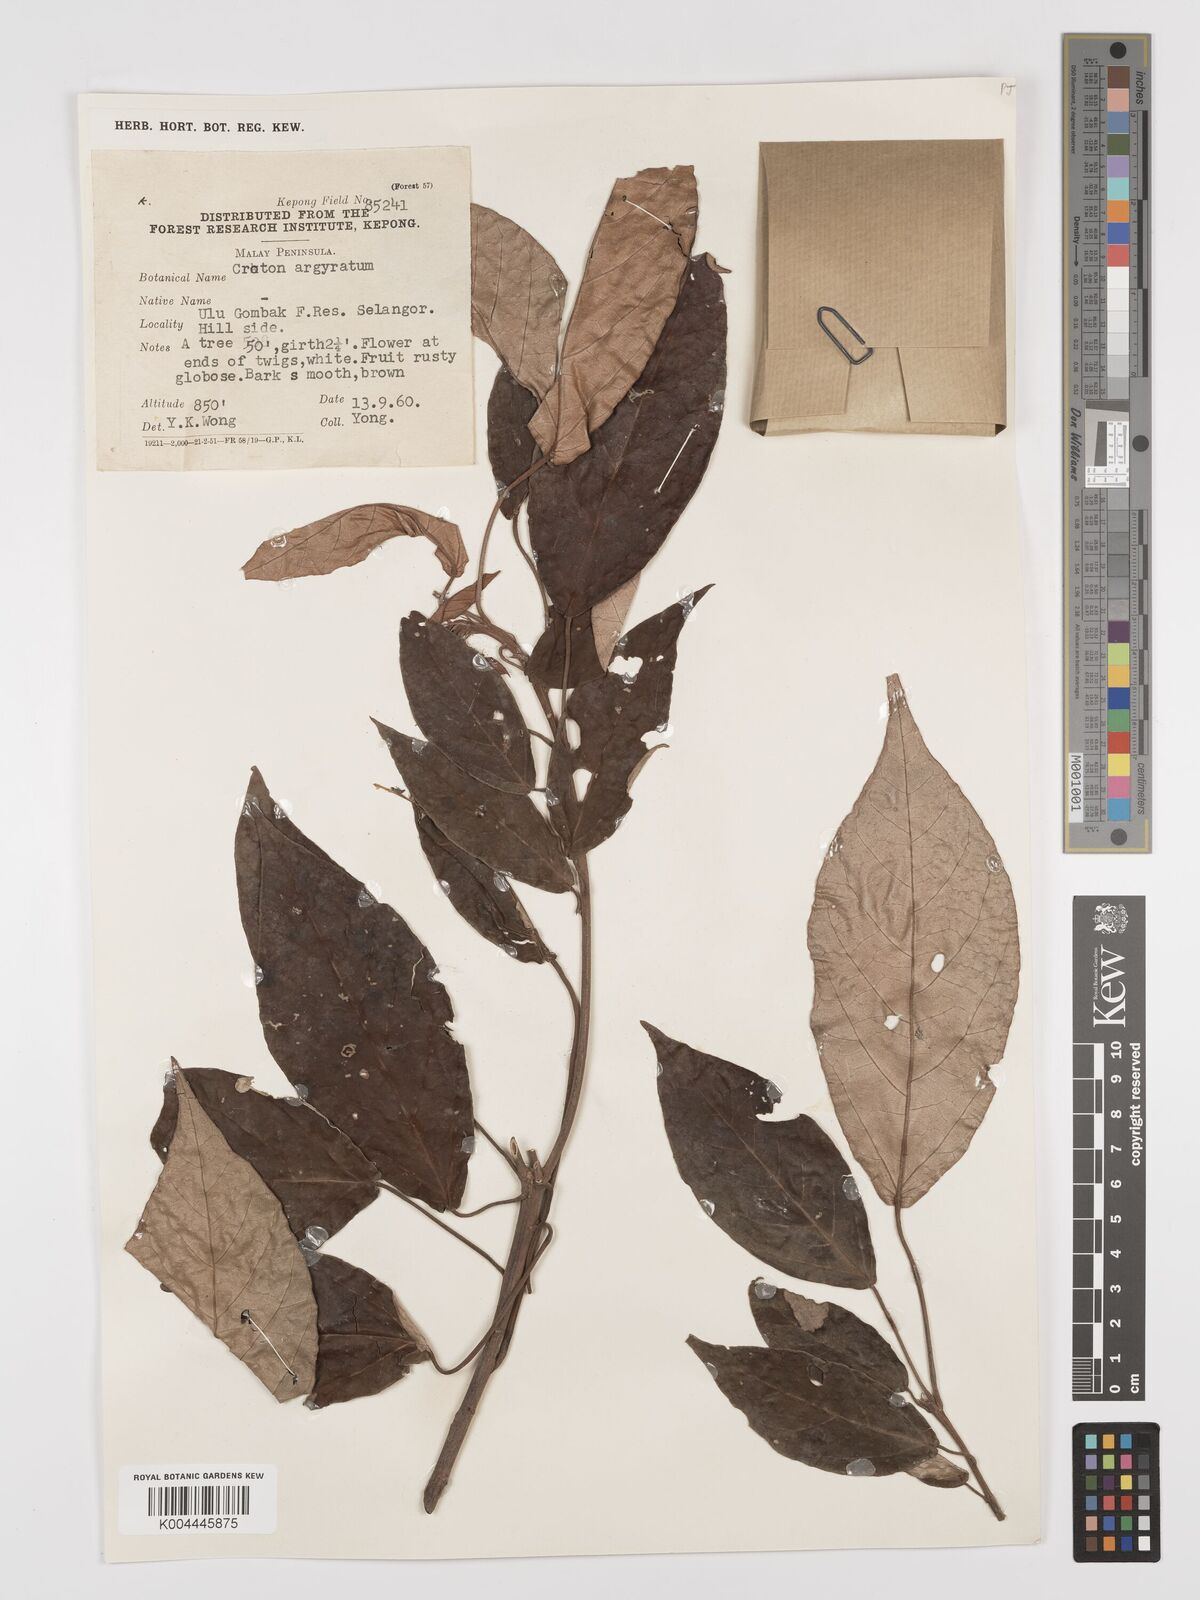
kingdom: Plantae
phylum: Tracheophyta
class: Magnoliopsida
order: Malpighiales
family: Euphorbiaceae
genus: Croton
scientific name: Croton argyratus
